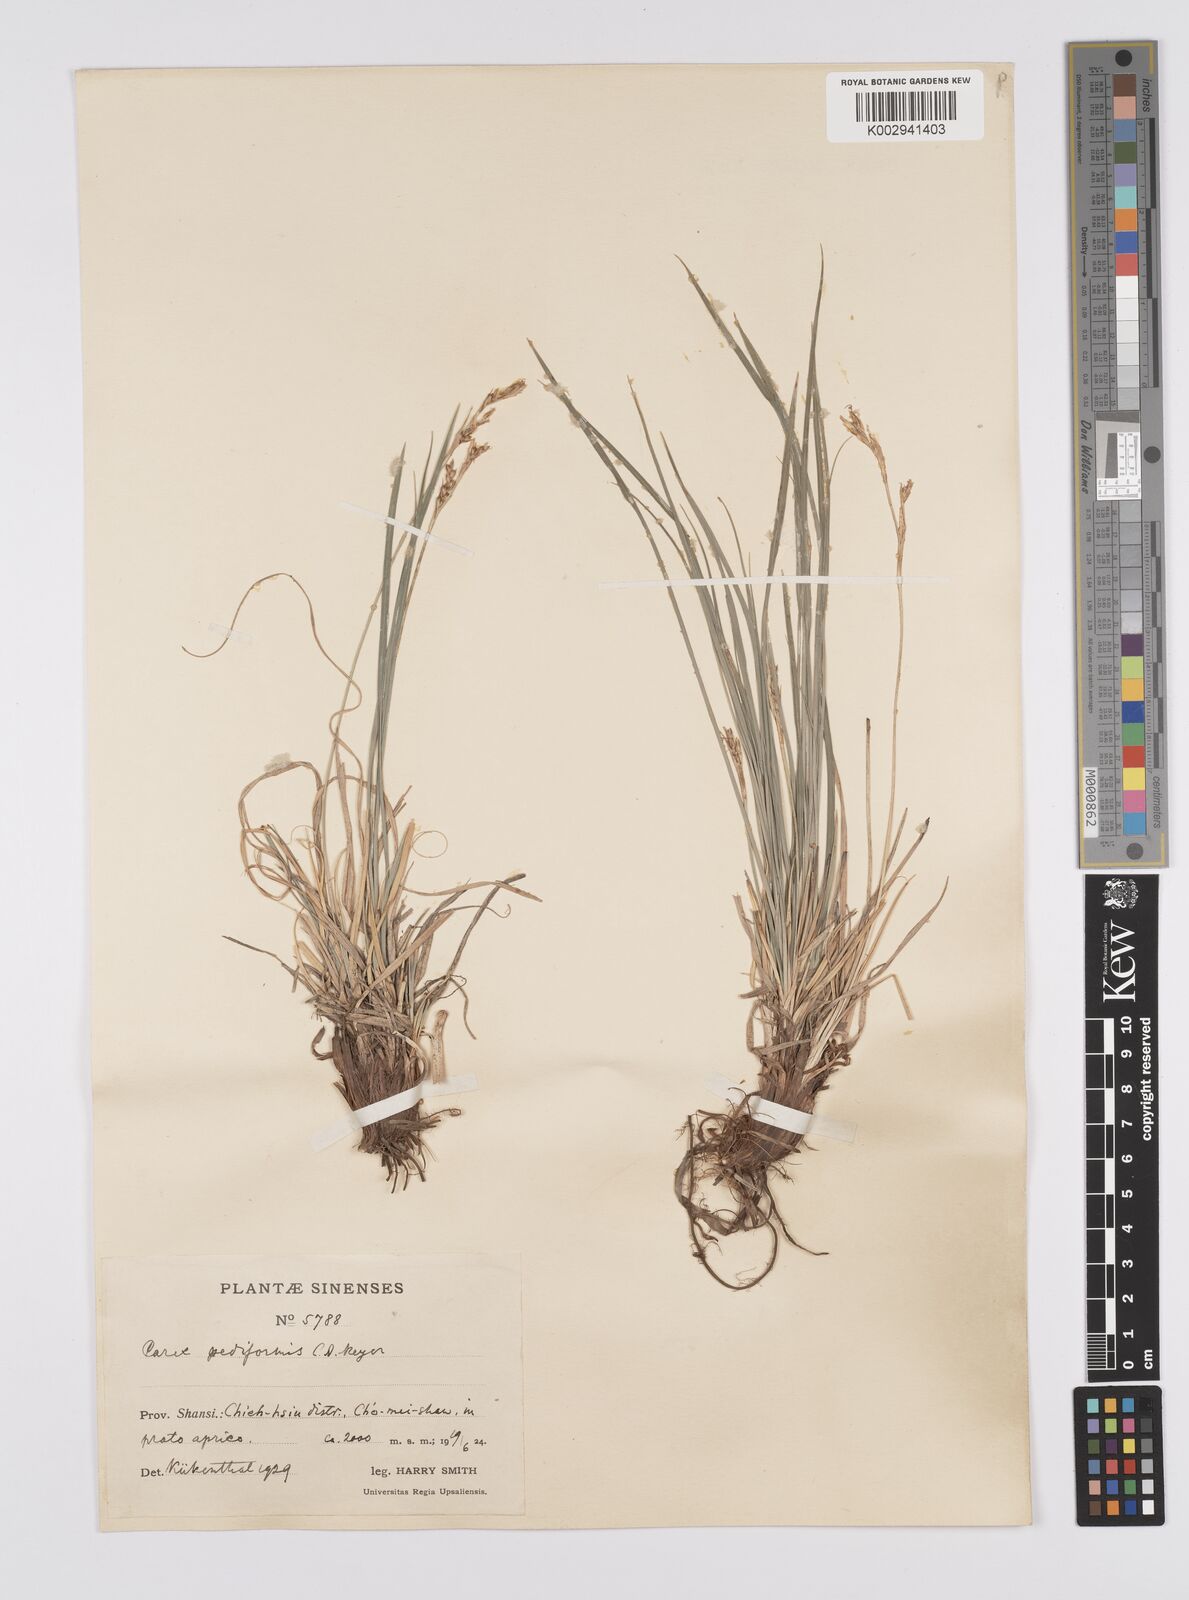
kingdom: Plantae
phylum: Tracheophyta
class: Liliopsida
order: Poales
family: Cyperaceae
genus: Carex
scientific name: Carex pediformis
